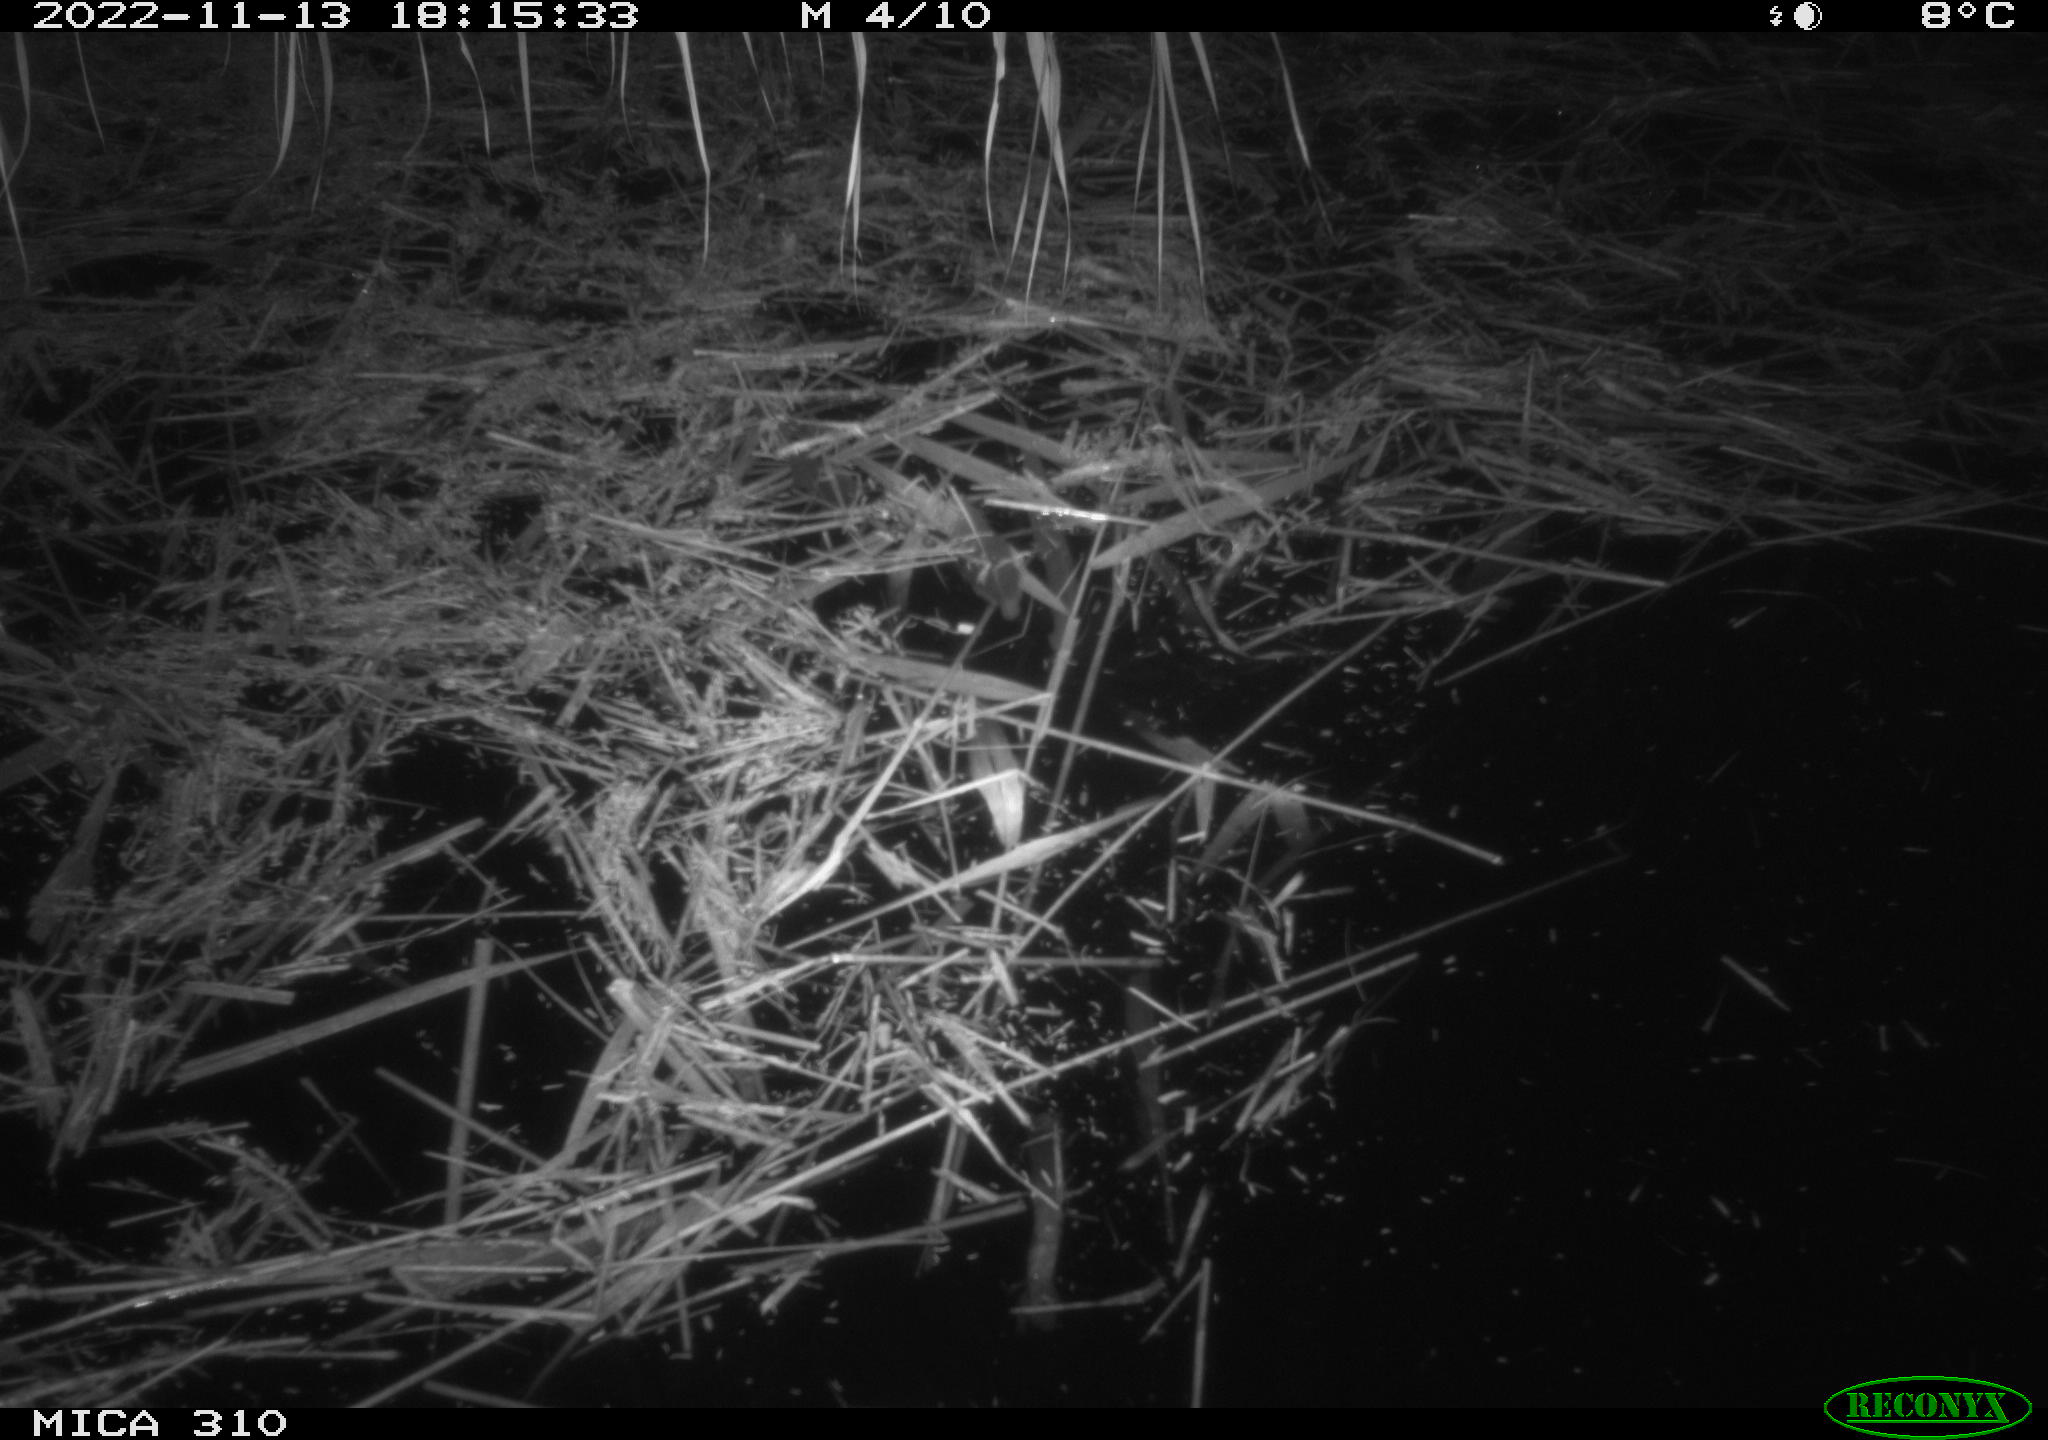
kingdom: Animalia
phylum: Chordata
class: Mammalia
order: Rodentia
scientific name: Rodentia
